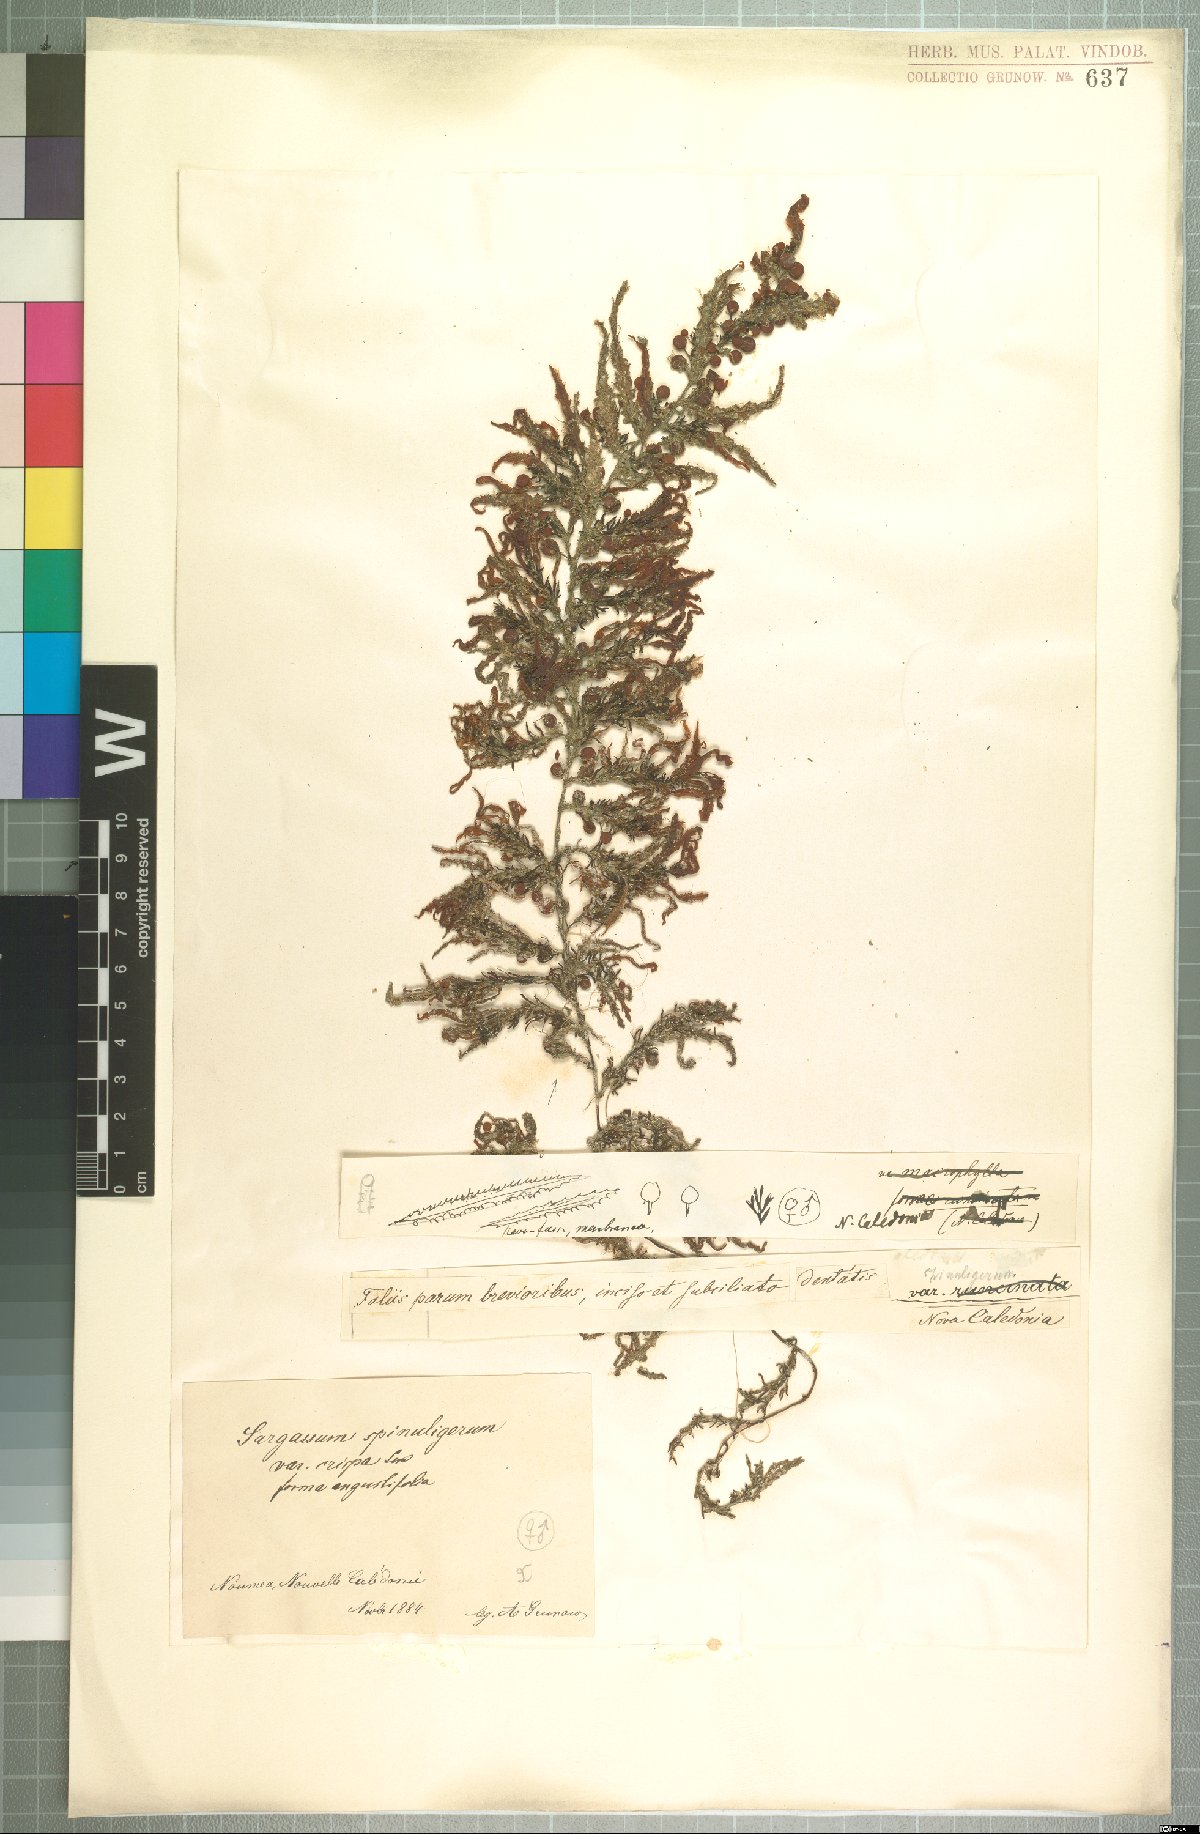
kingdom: Chromista
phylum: Ochrophyta
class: Phaeophyceae
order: Fucales
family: Sargassaceae
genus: Sargassum
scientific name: Sargassum
